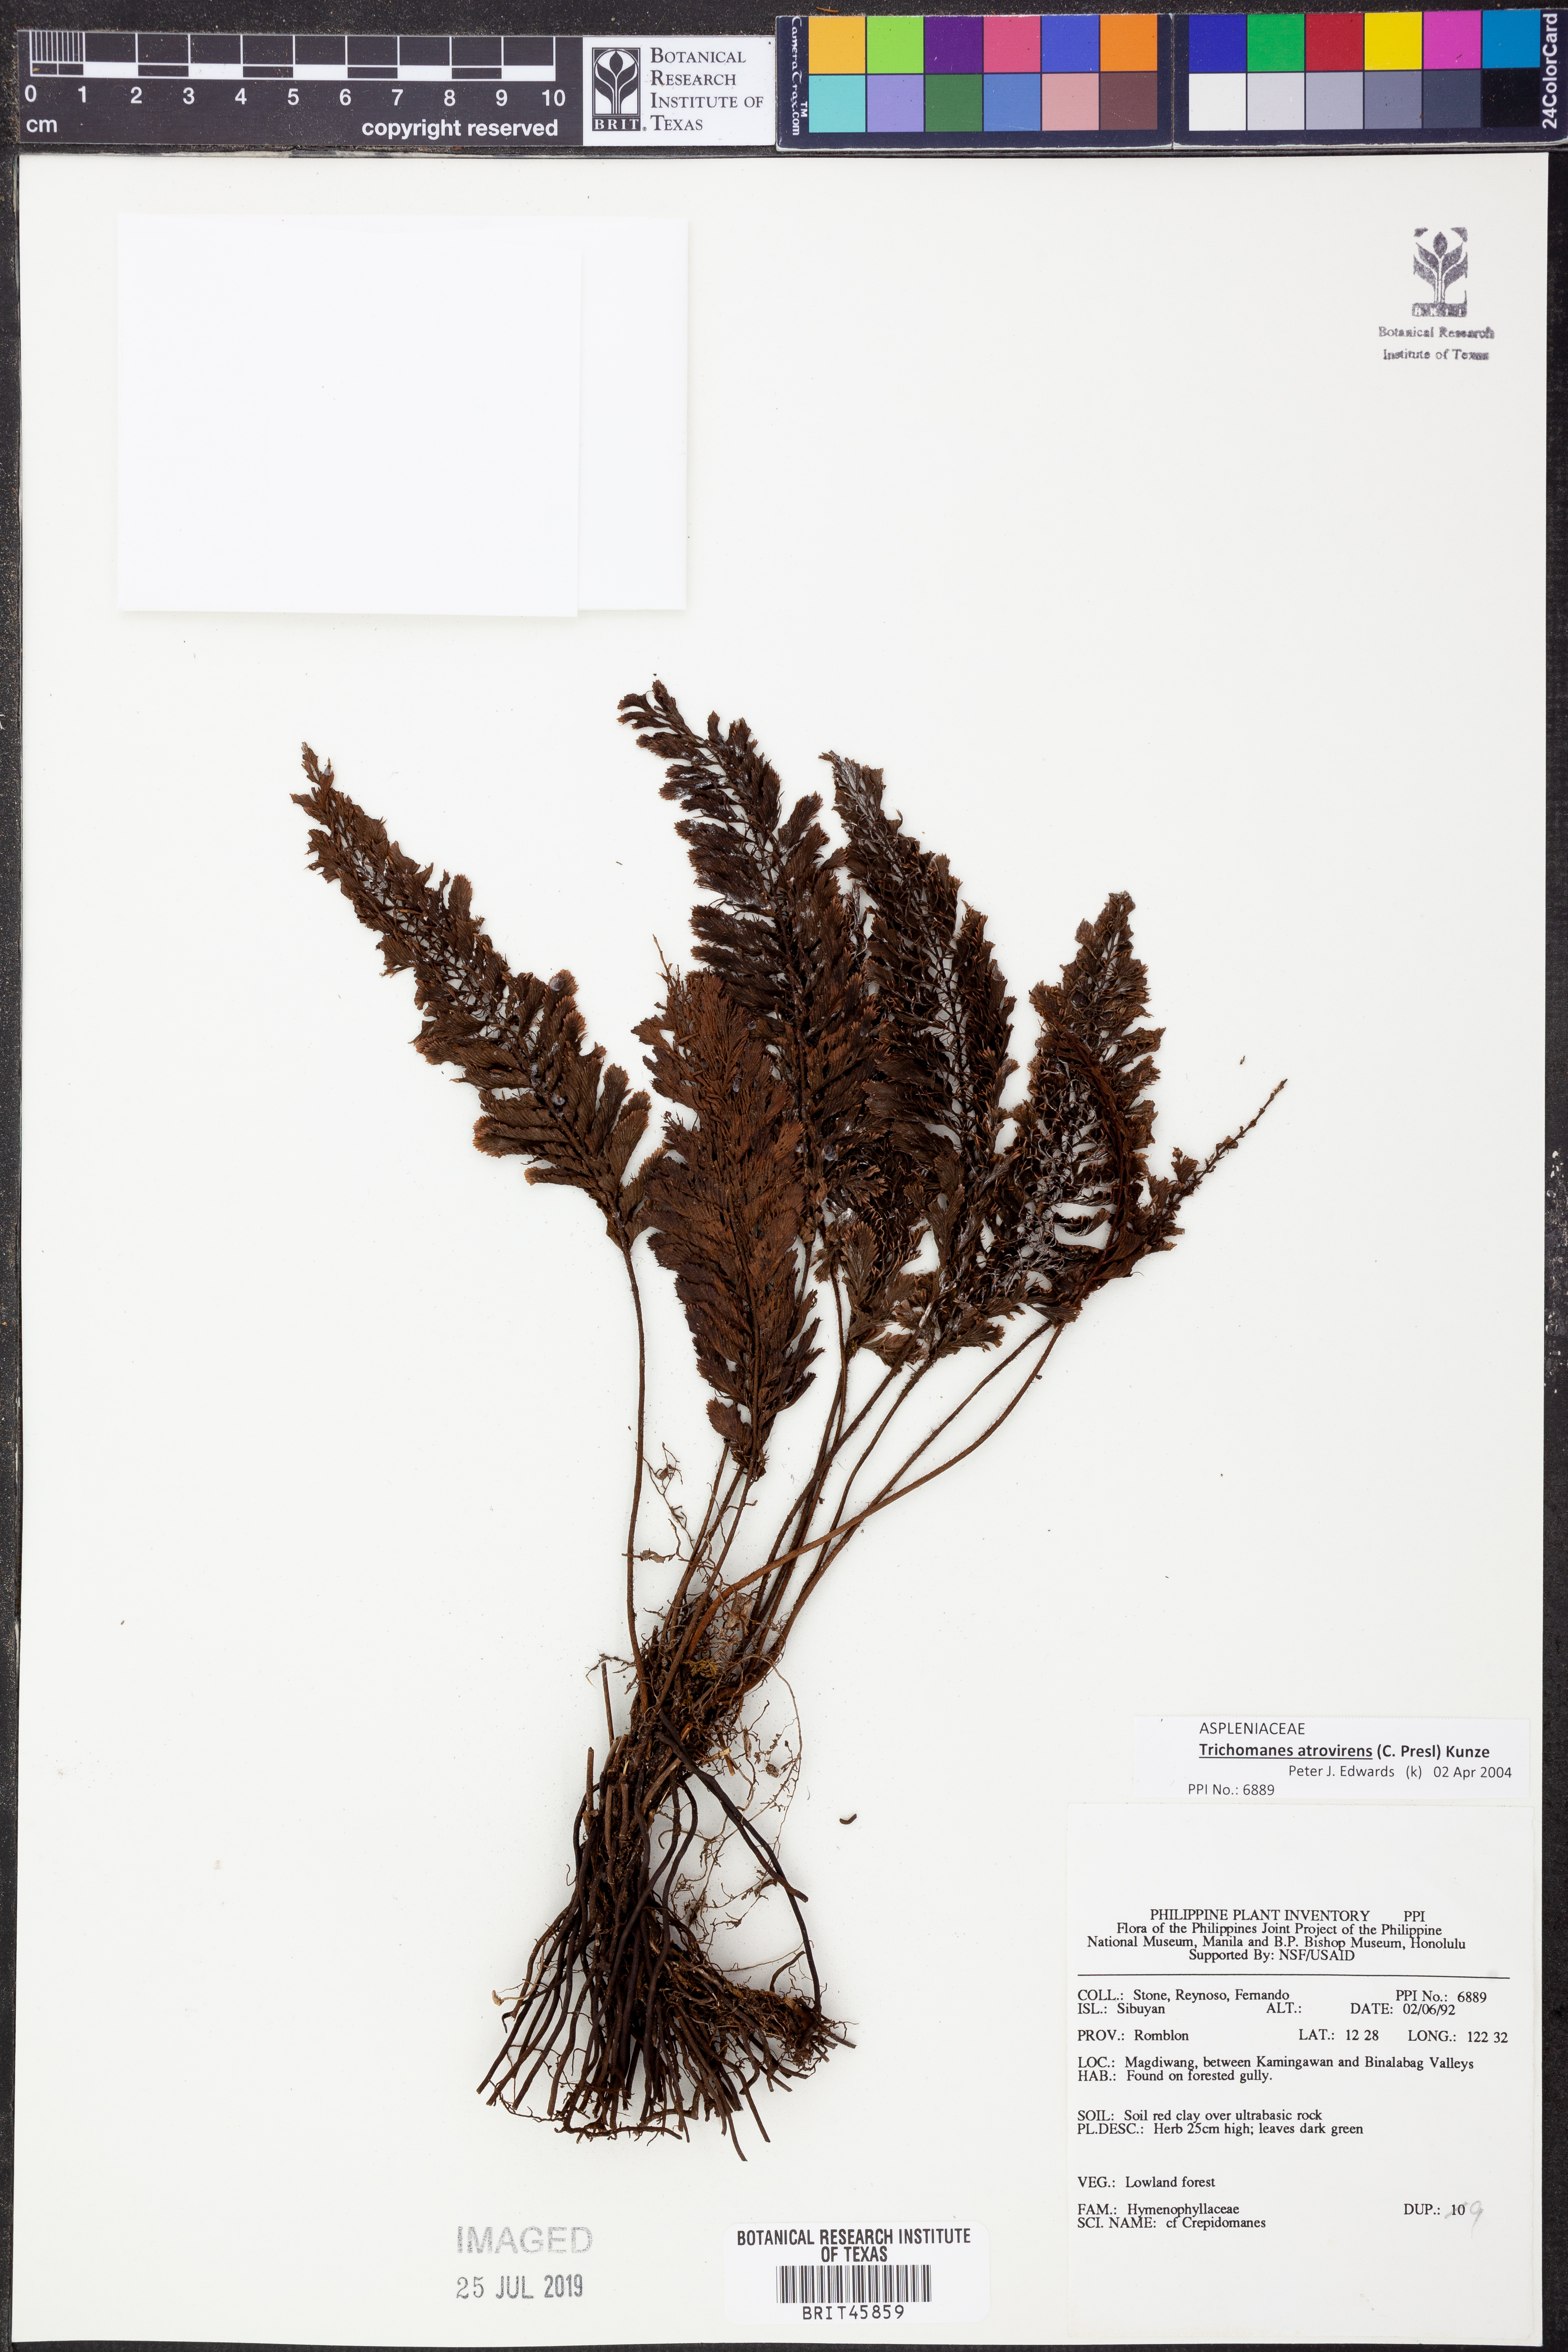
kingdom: Plantae
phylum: Tracheophyta
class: Polypodiopsida
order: Hymenophyllales
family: Hymenophyllaceae
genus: Cephalomanes
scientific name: Cephalomanes atrovirens
